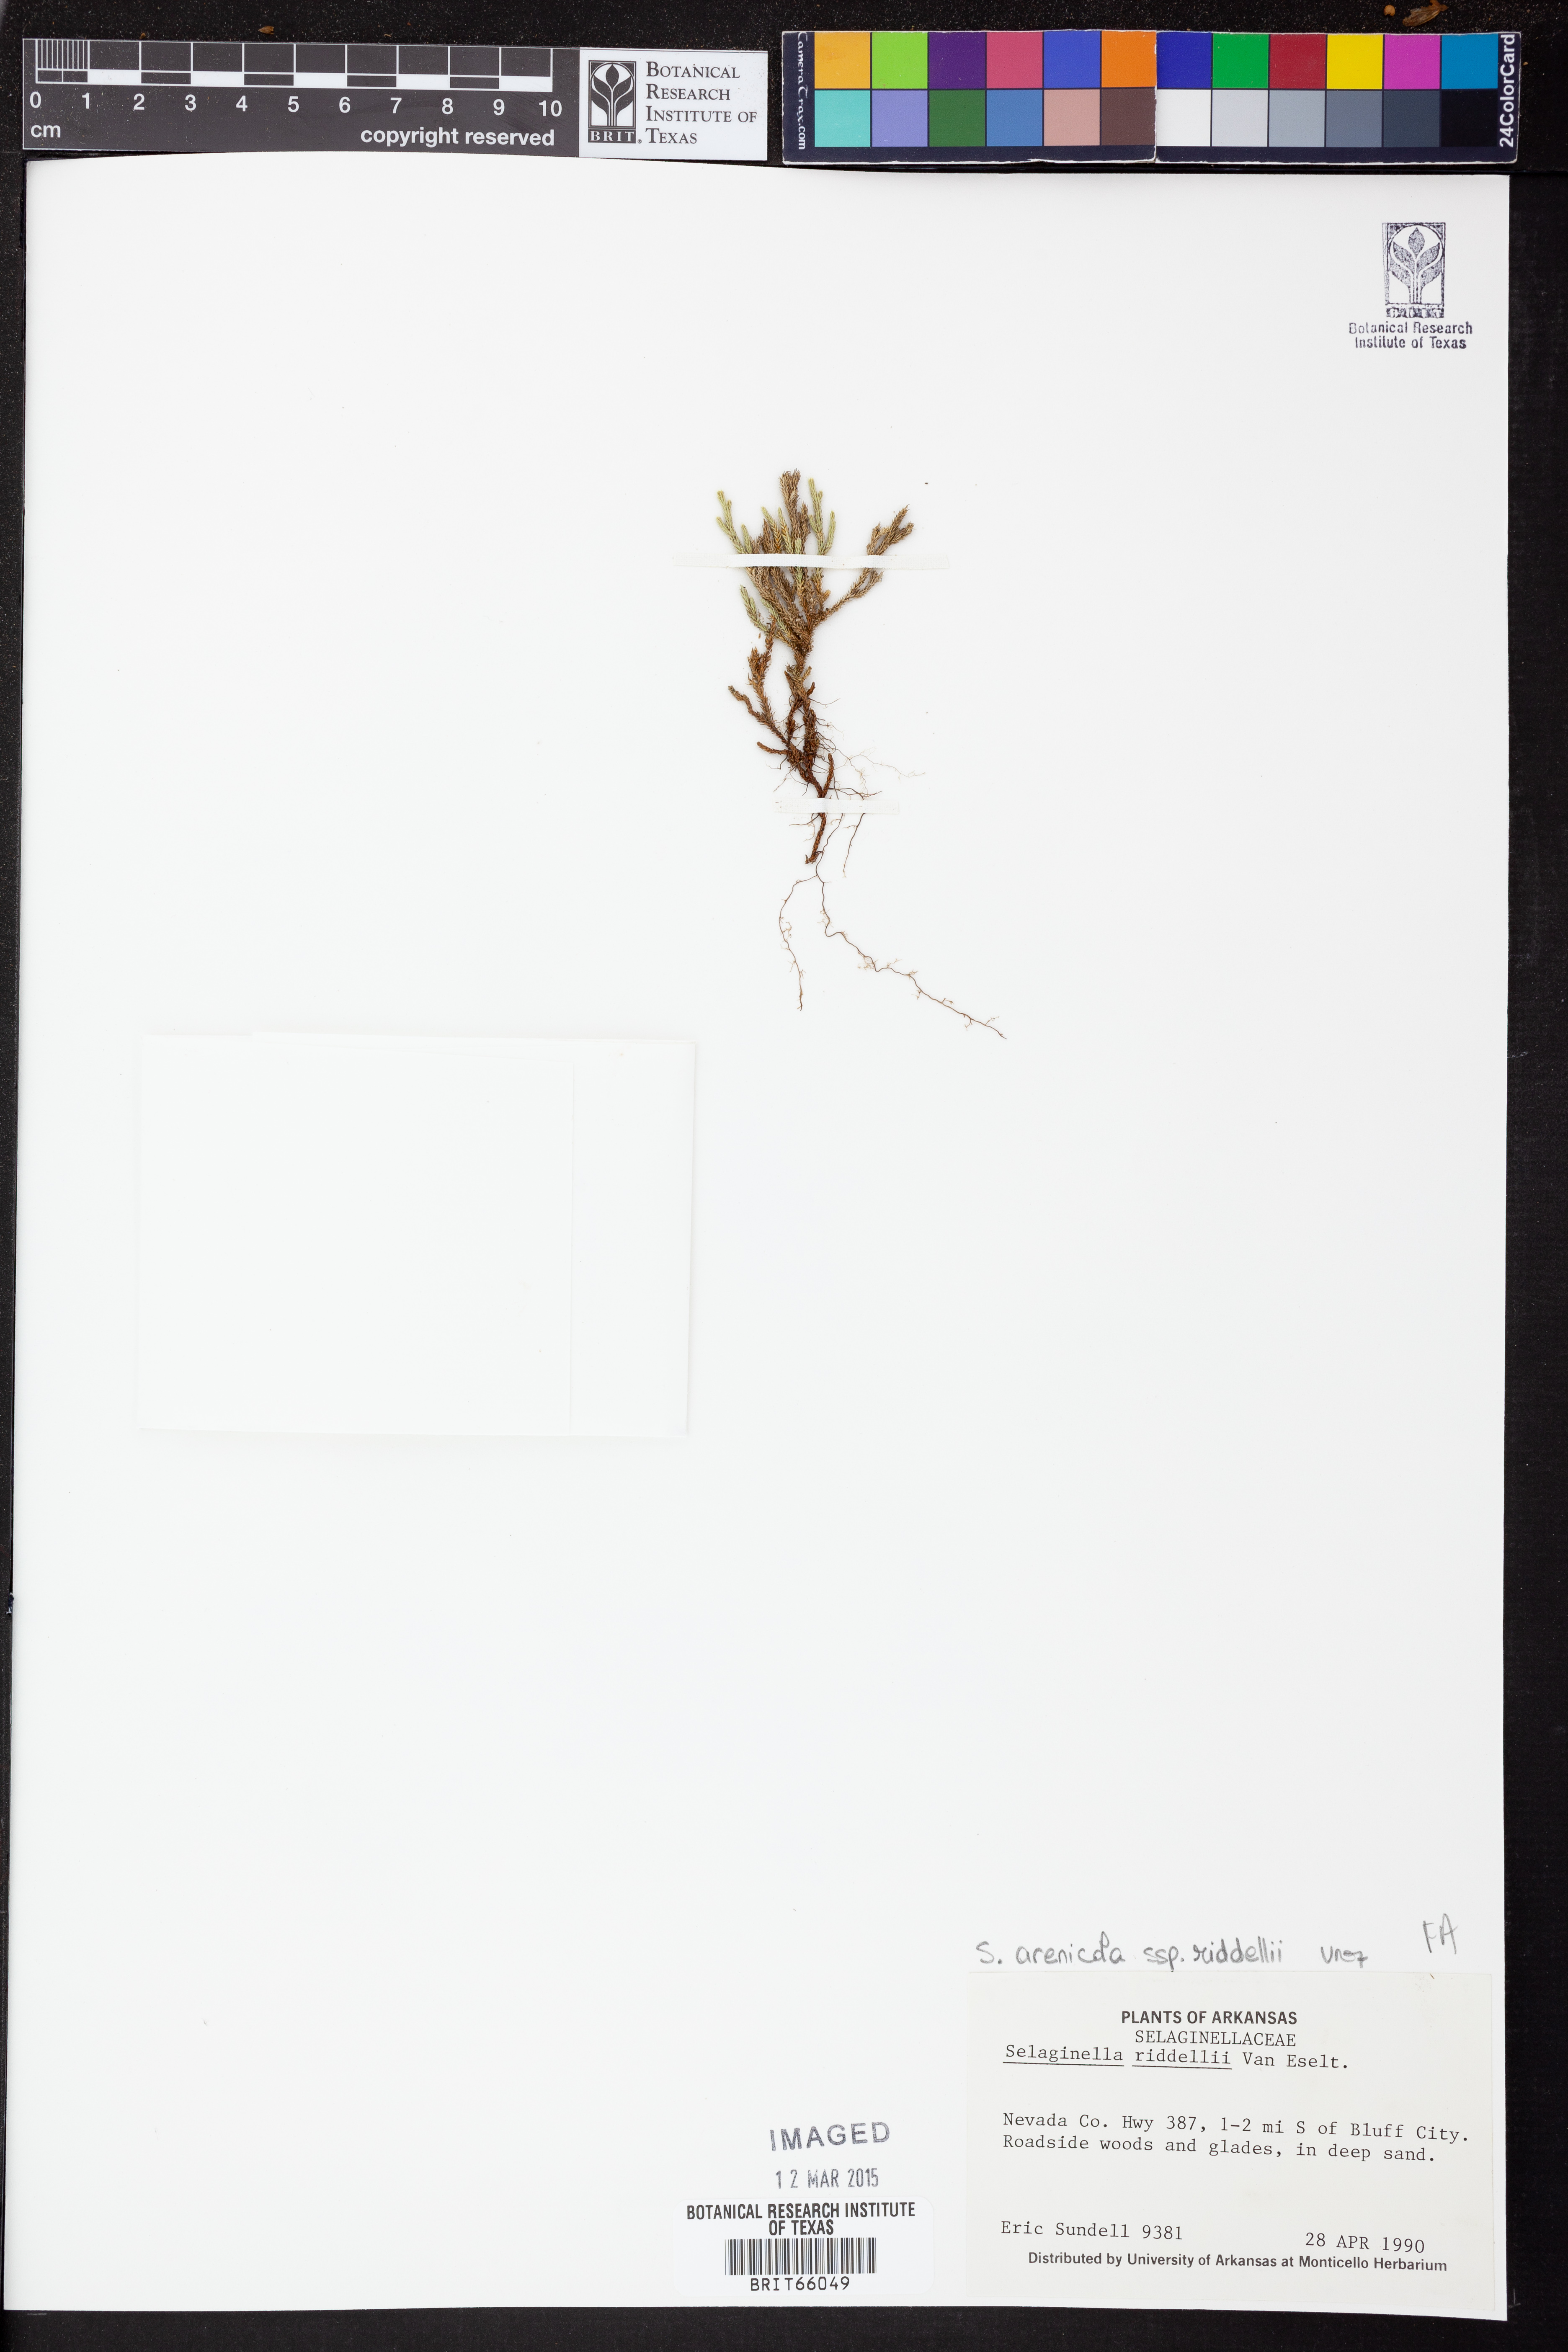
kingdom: Plantae
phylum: Tracheophyta
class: Lycopodiopsida
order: Selaginellales
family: Selaginellaceae
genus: Selaginella
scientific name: Selaginella corallina
